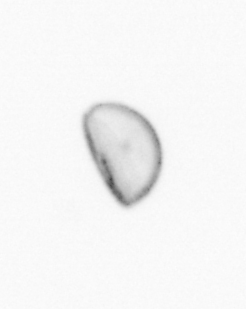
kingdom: Chromista
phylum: Ochrophyta
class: Bacillariophyceae
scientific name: Bacillariophyceae
